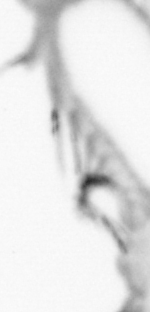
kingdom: Animalia
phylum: Annelida
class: Polychaeta
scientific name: Polychaeta
